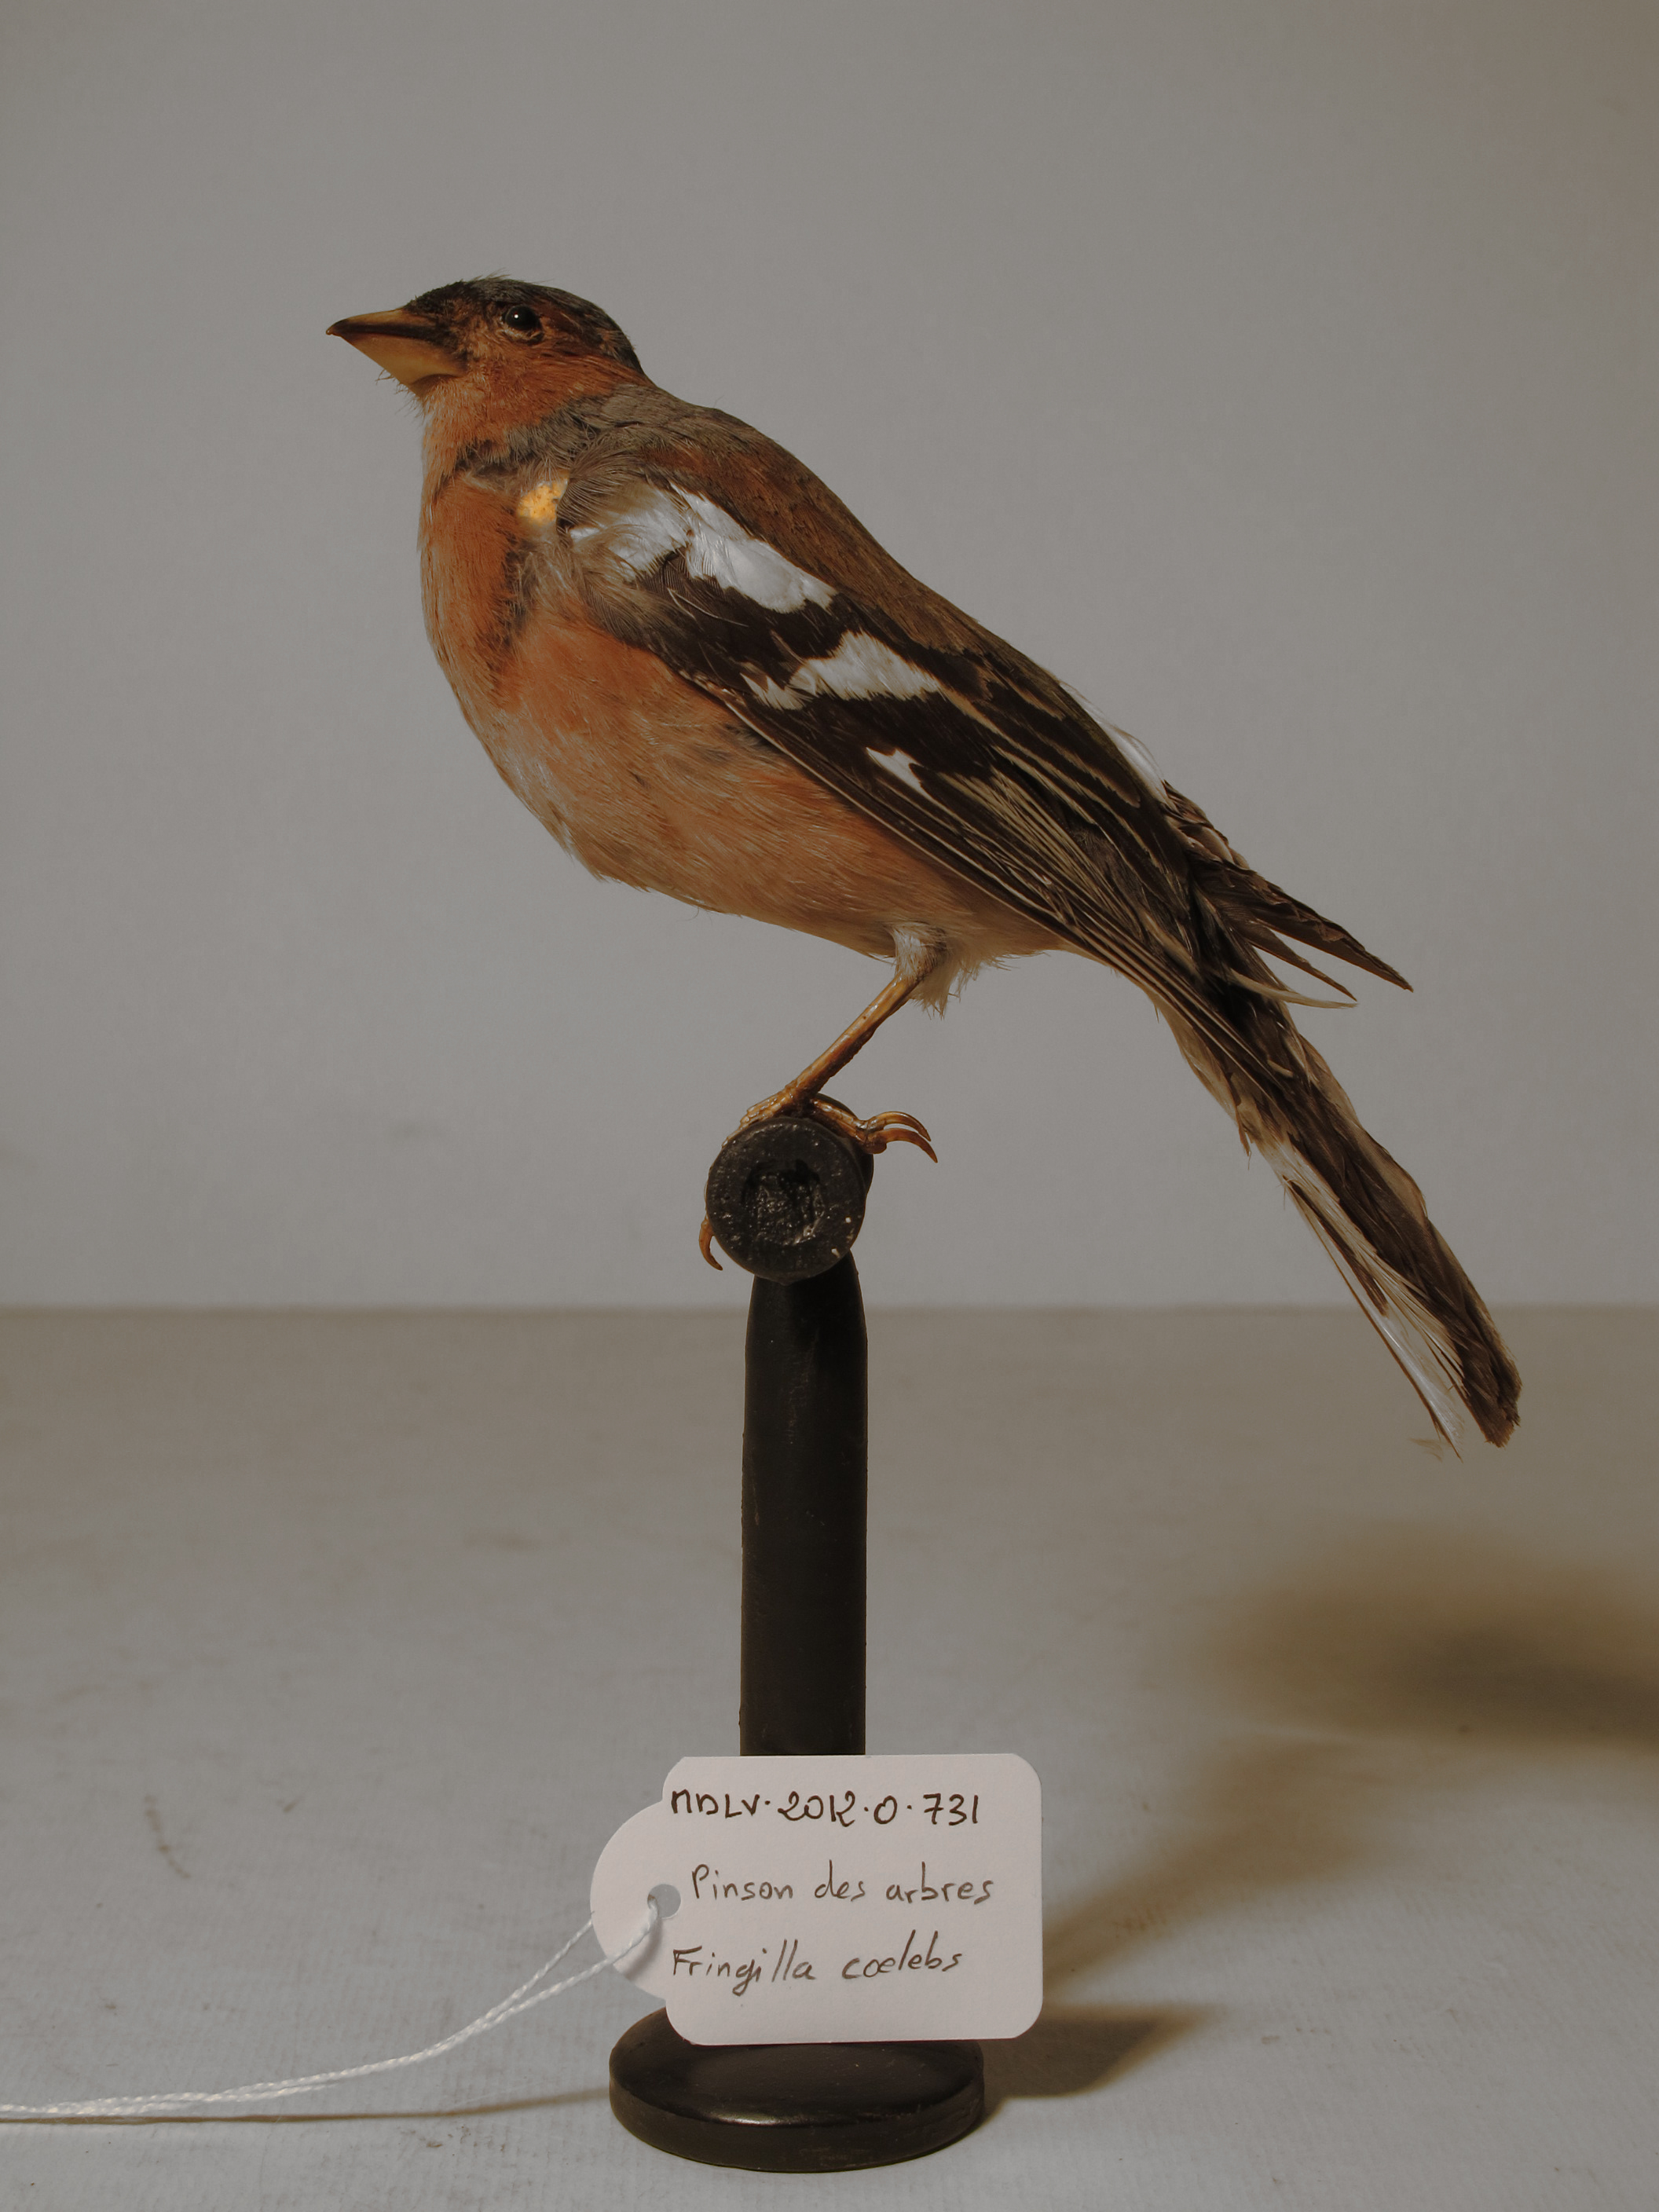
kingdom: Animalia
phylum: Chordata
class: Aves
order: Passeriformes
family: Fringillidae
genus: Fringilla
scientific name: Fringilla coelebs
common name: Common Chaffinch
